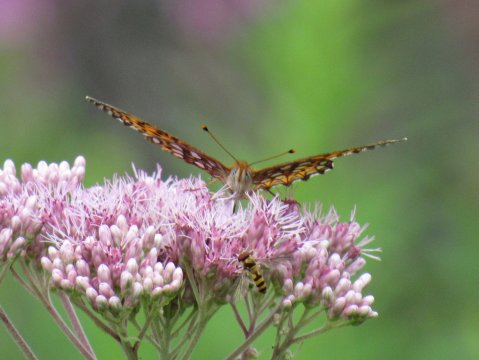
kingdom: Animalia
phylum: Arthropoda
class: Insecta
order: Lepidoptera
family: Nymphalidae
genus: Speyeria
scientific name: Speyeria atlantis
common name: Atlantis Fritillary
